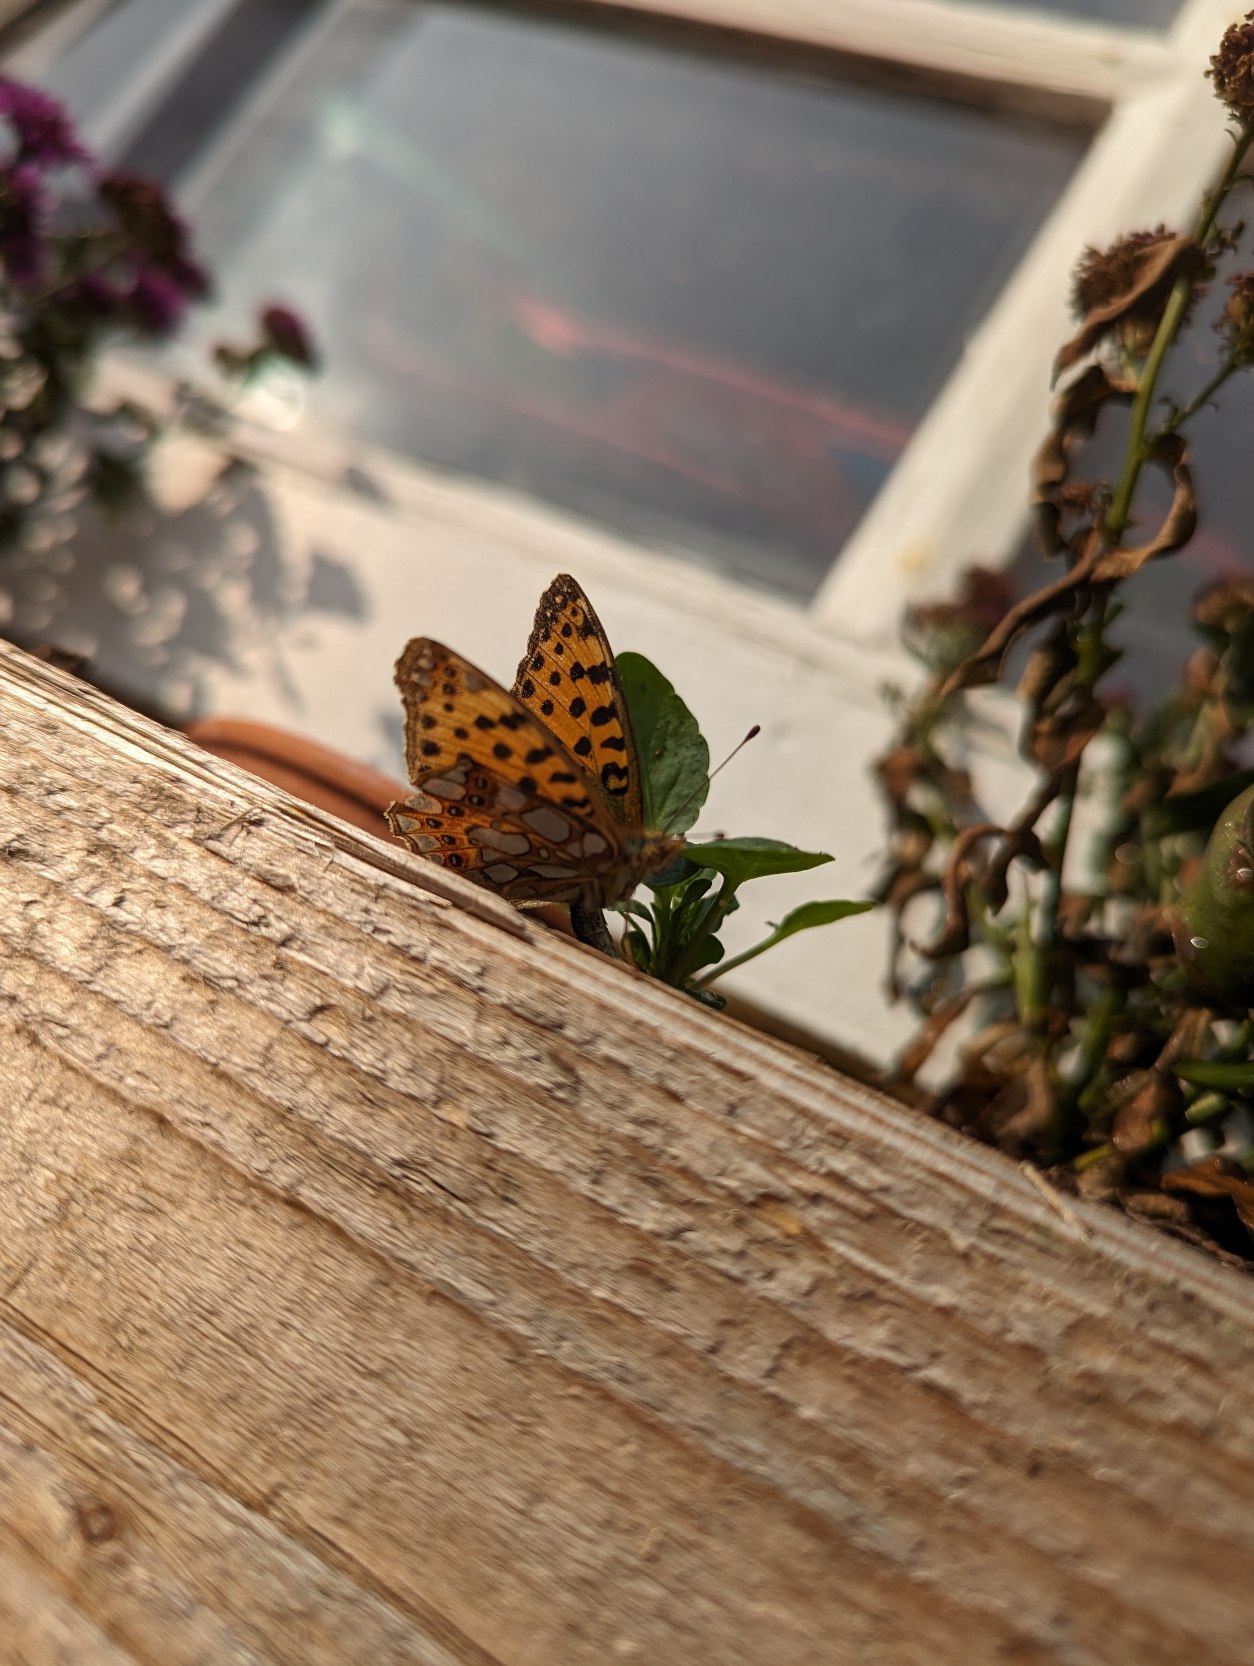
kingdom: Animalia
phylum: Arthropoda
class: Insecta
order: Lepidoptera
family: Nymphalidae
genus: Issoria
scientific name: Issoria lathonia
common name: Storplettet perlemorsommerfugl
